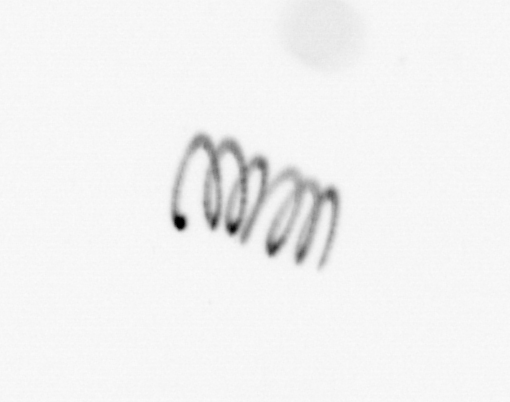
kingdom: Chromista
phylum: Ochrophyta
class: Bacillariophyceae
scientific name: Bacillariophyceae
